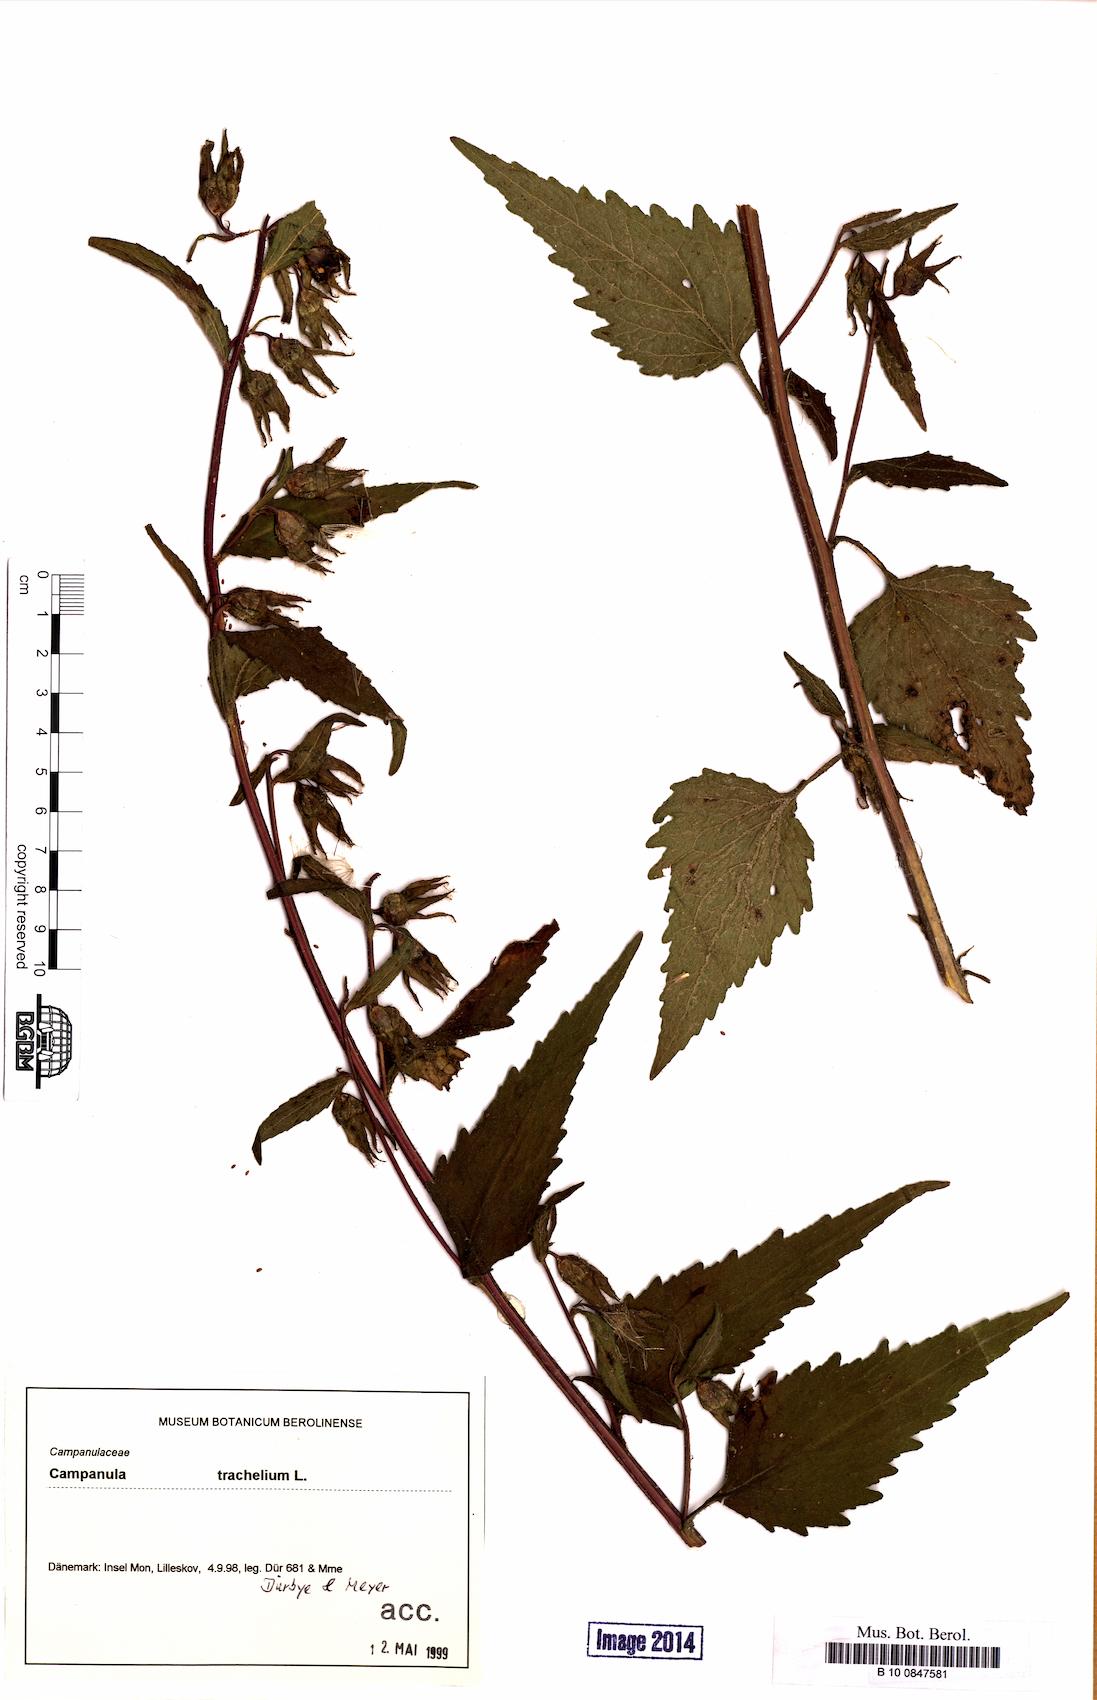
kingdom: Plantae
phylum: Tracheophyta
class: Magnoliopsida
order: Asterales
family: Campanulaceae
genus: Campanula
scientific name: Campanula trachelium
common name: Nettle-leaved bellflower
